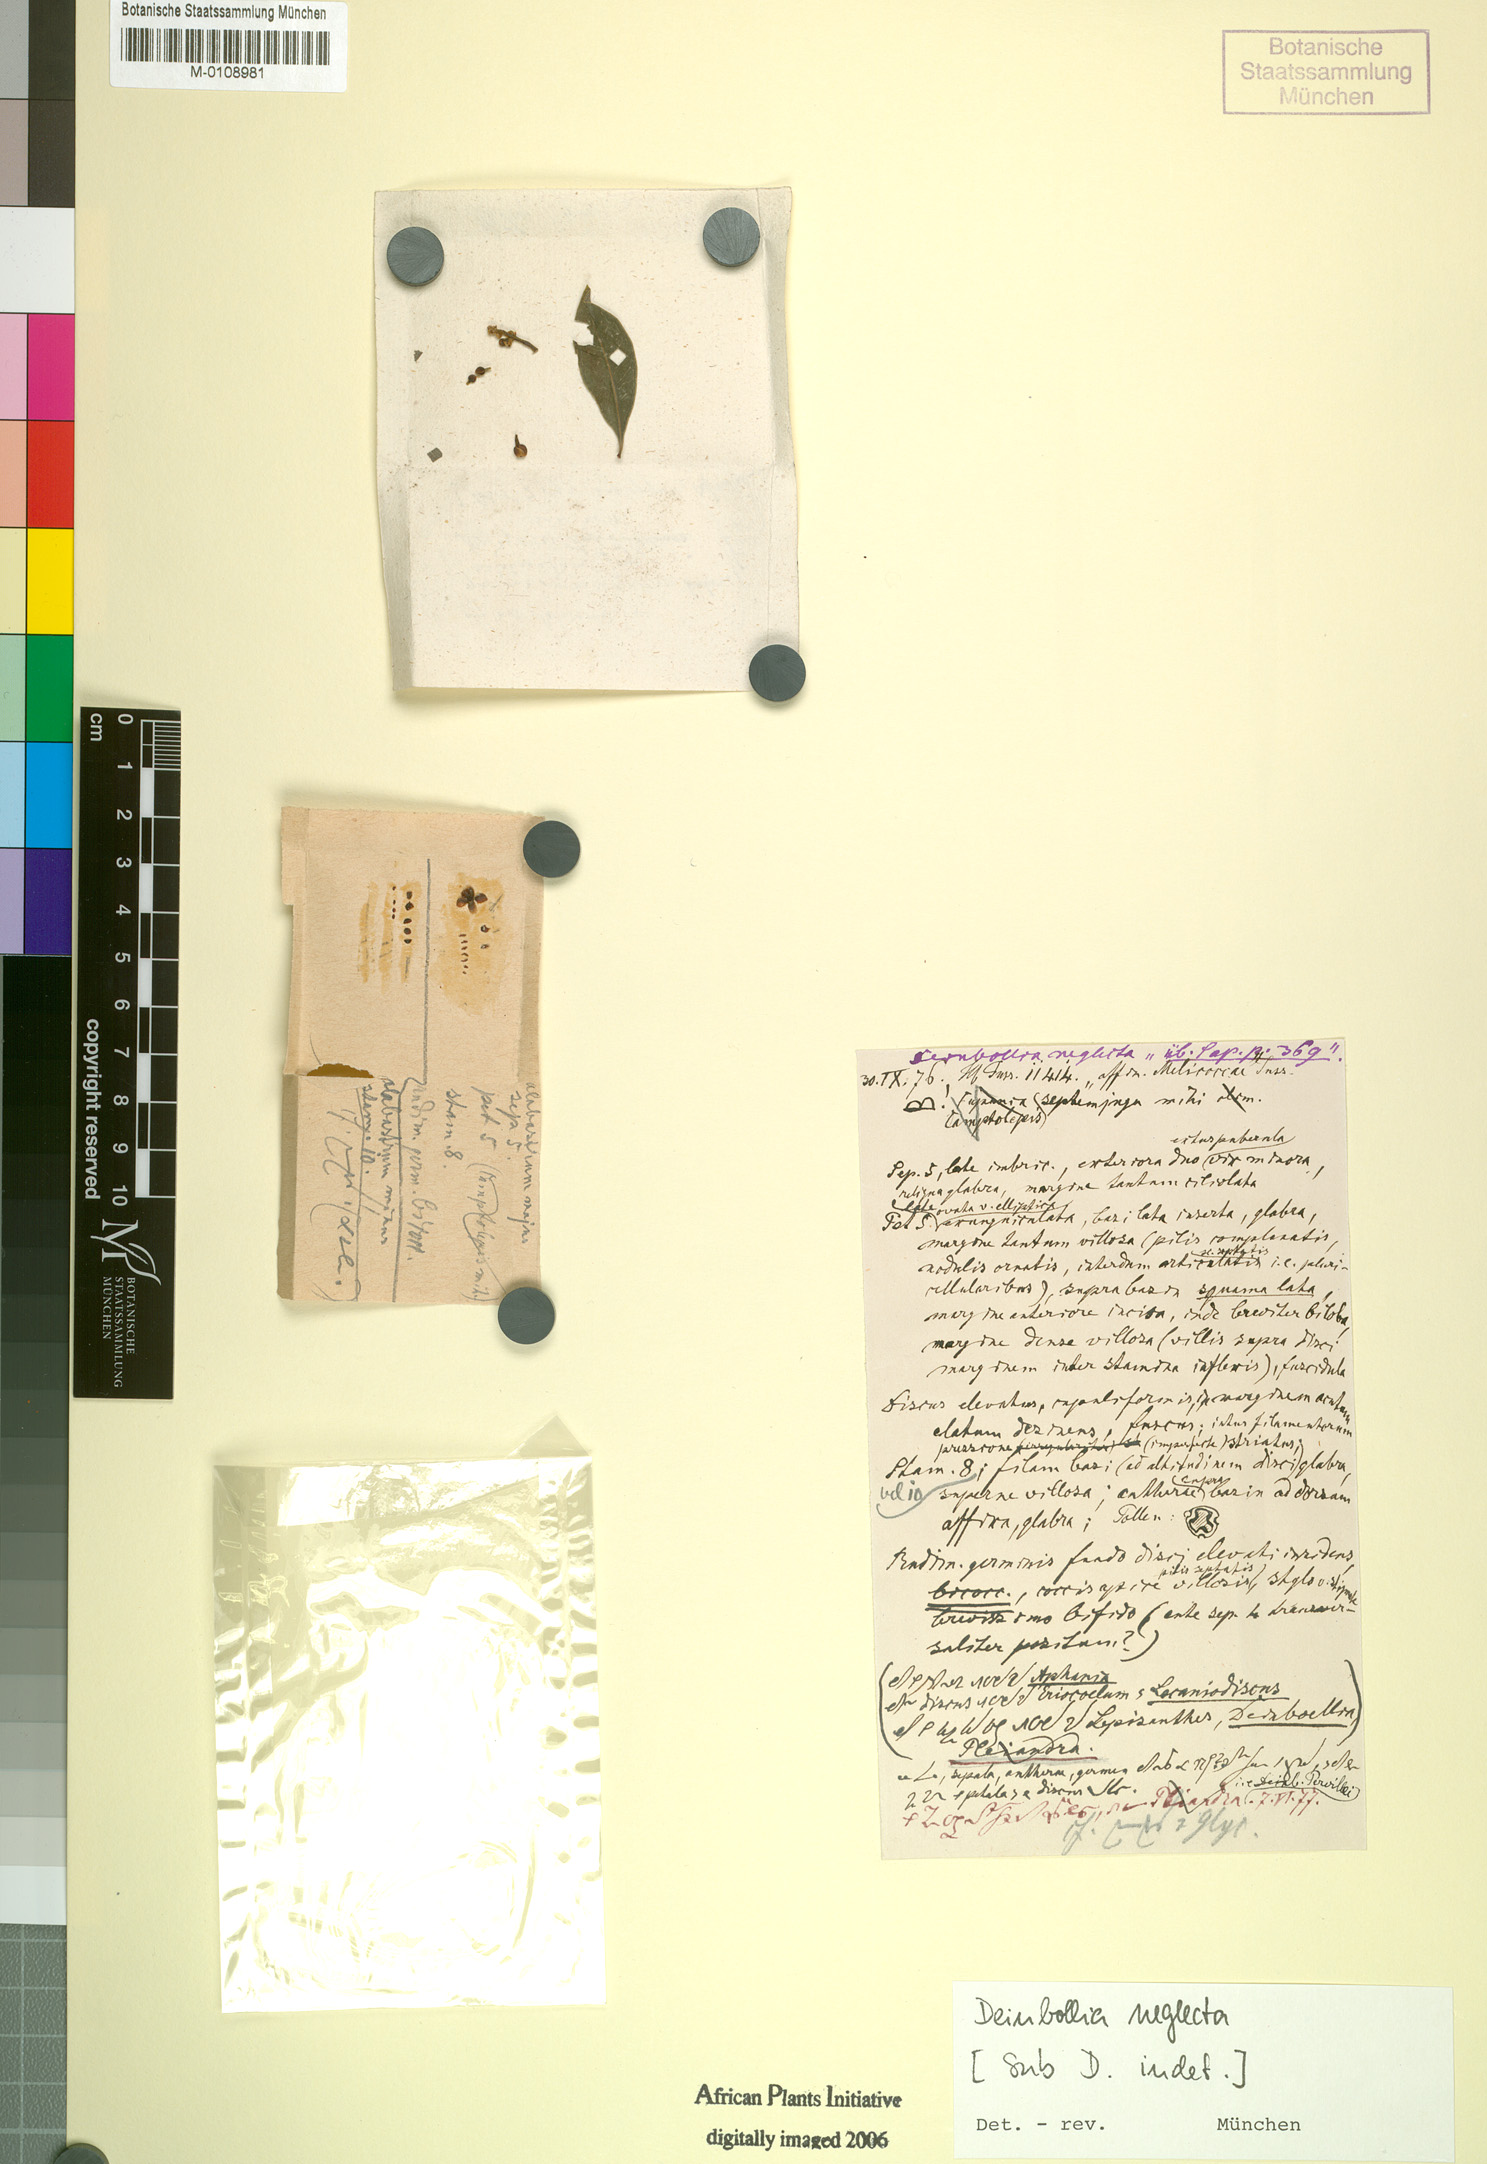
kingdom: Plantae
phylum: Tracheophyta
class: Magnoliopsida
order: Sapindales
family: Sapindaceae
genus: Deinbollia
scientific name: Deinbollia neglecta
